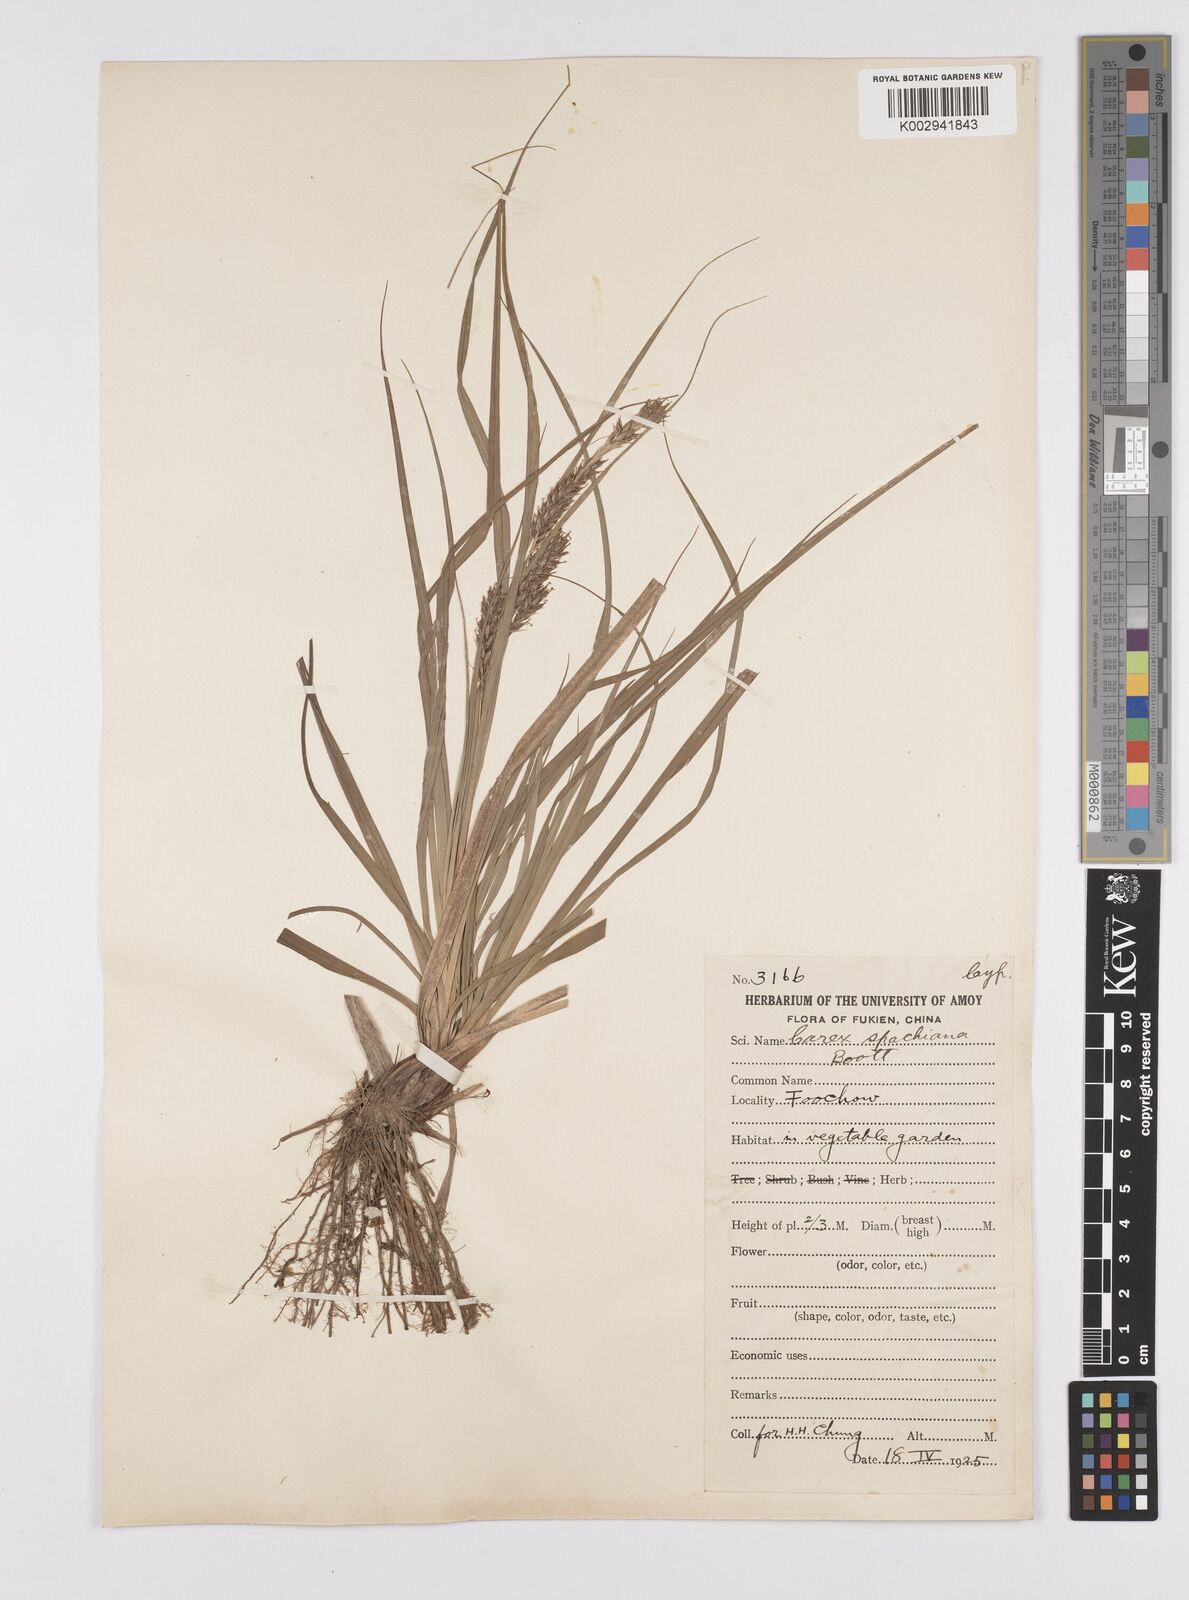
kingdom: Plantae
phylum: Tracheophyta
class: Liliopsida
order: Poales
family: Cyperaceae
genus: Carex
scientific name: Carex spachiana
